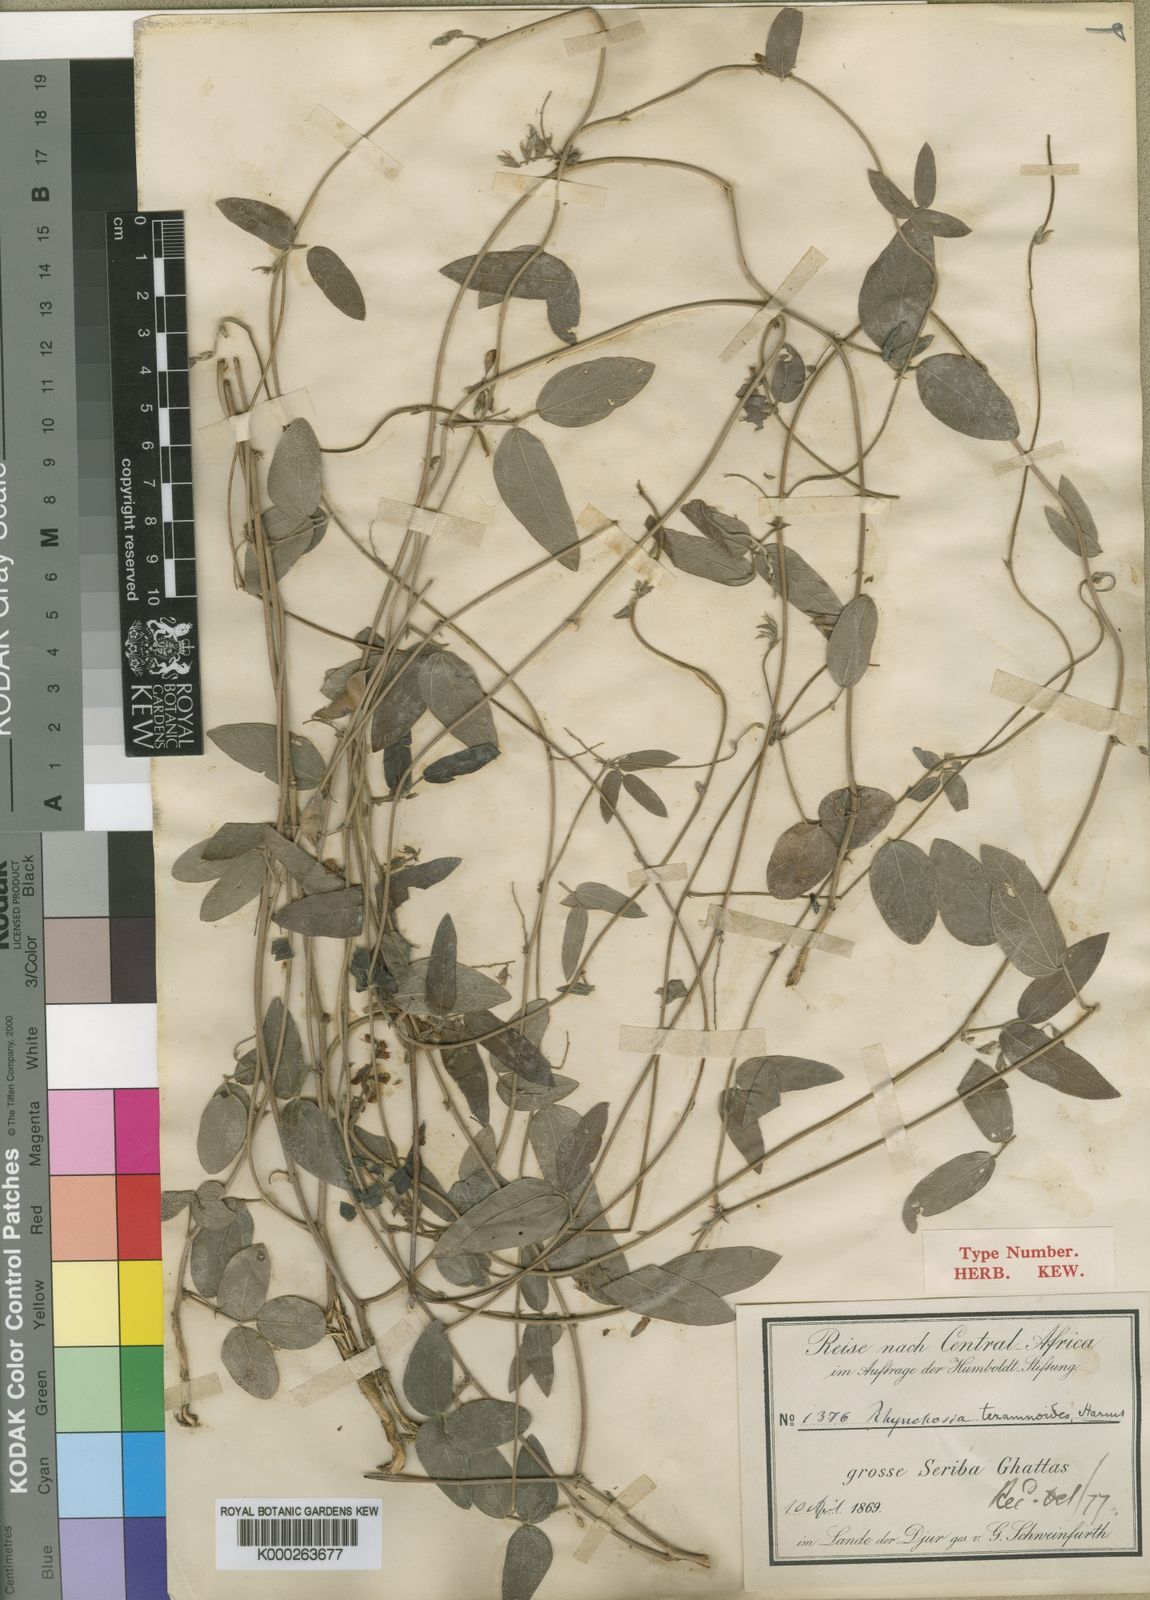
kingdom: Plantae
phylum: Tracheophyta
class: Magnoliopsida
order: Fabales
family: Fabaceae
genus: Rhynchosia
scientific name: Rhynchosia teramnoides
